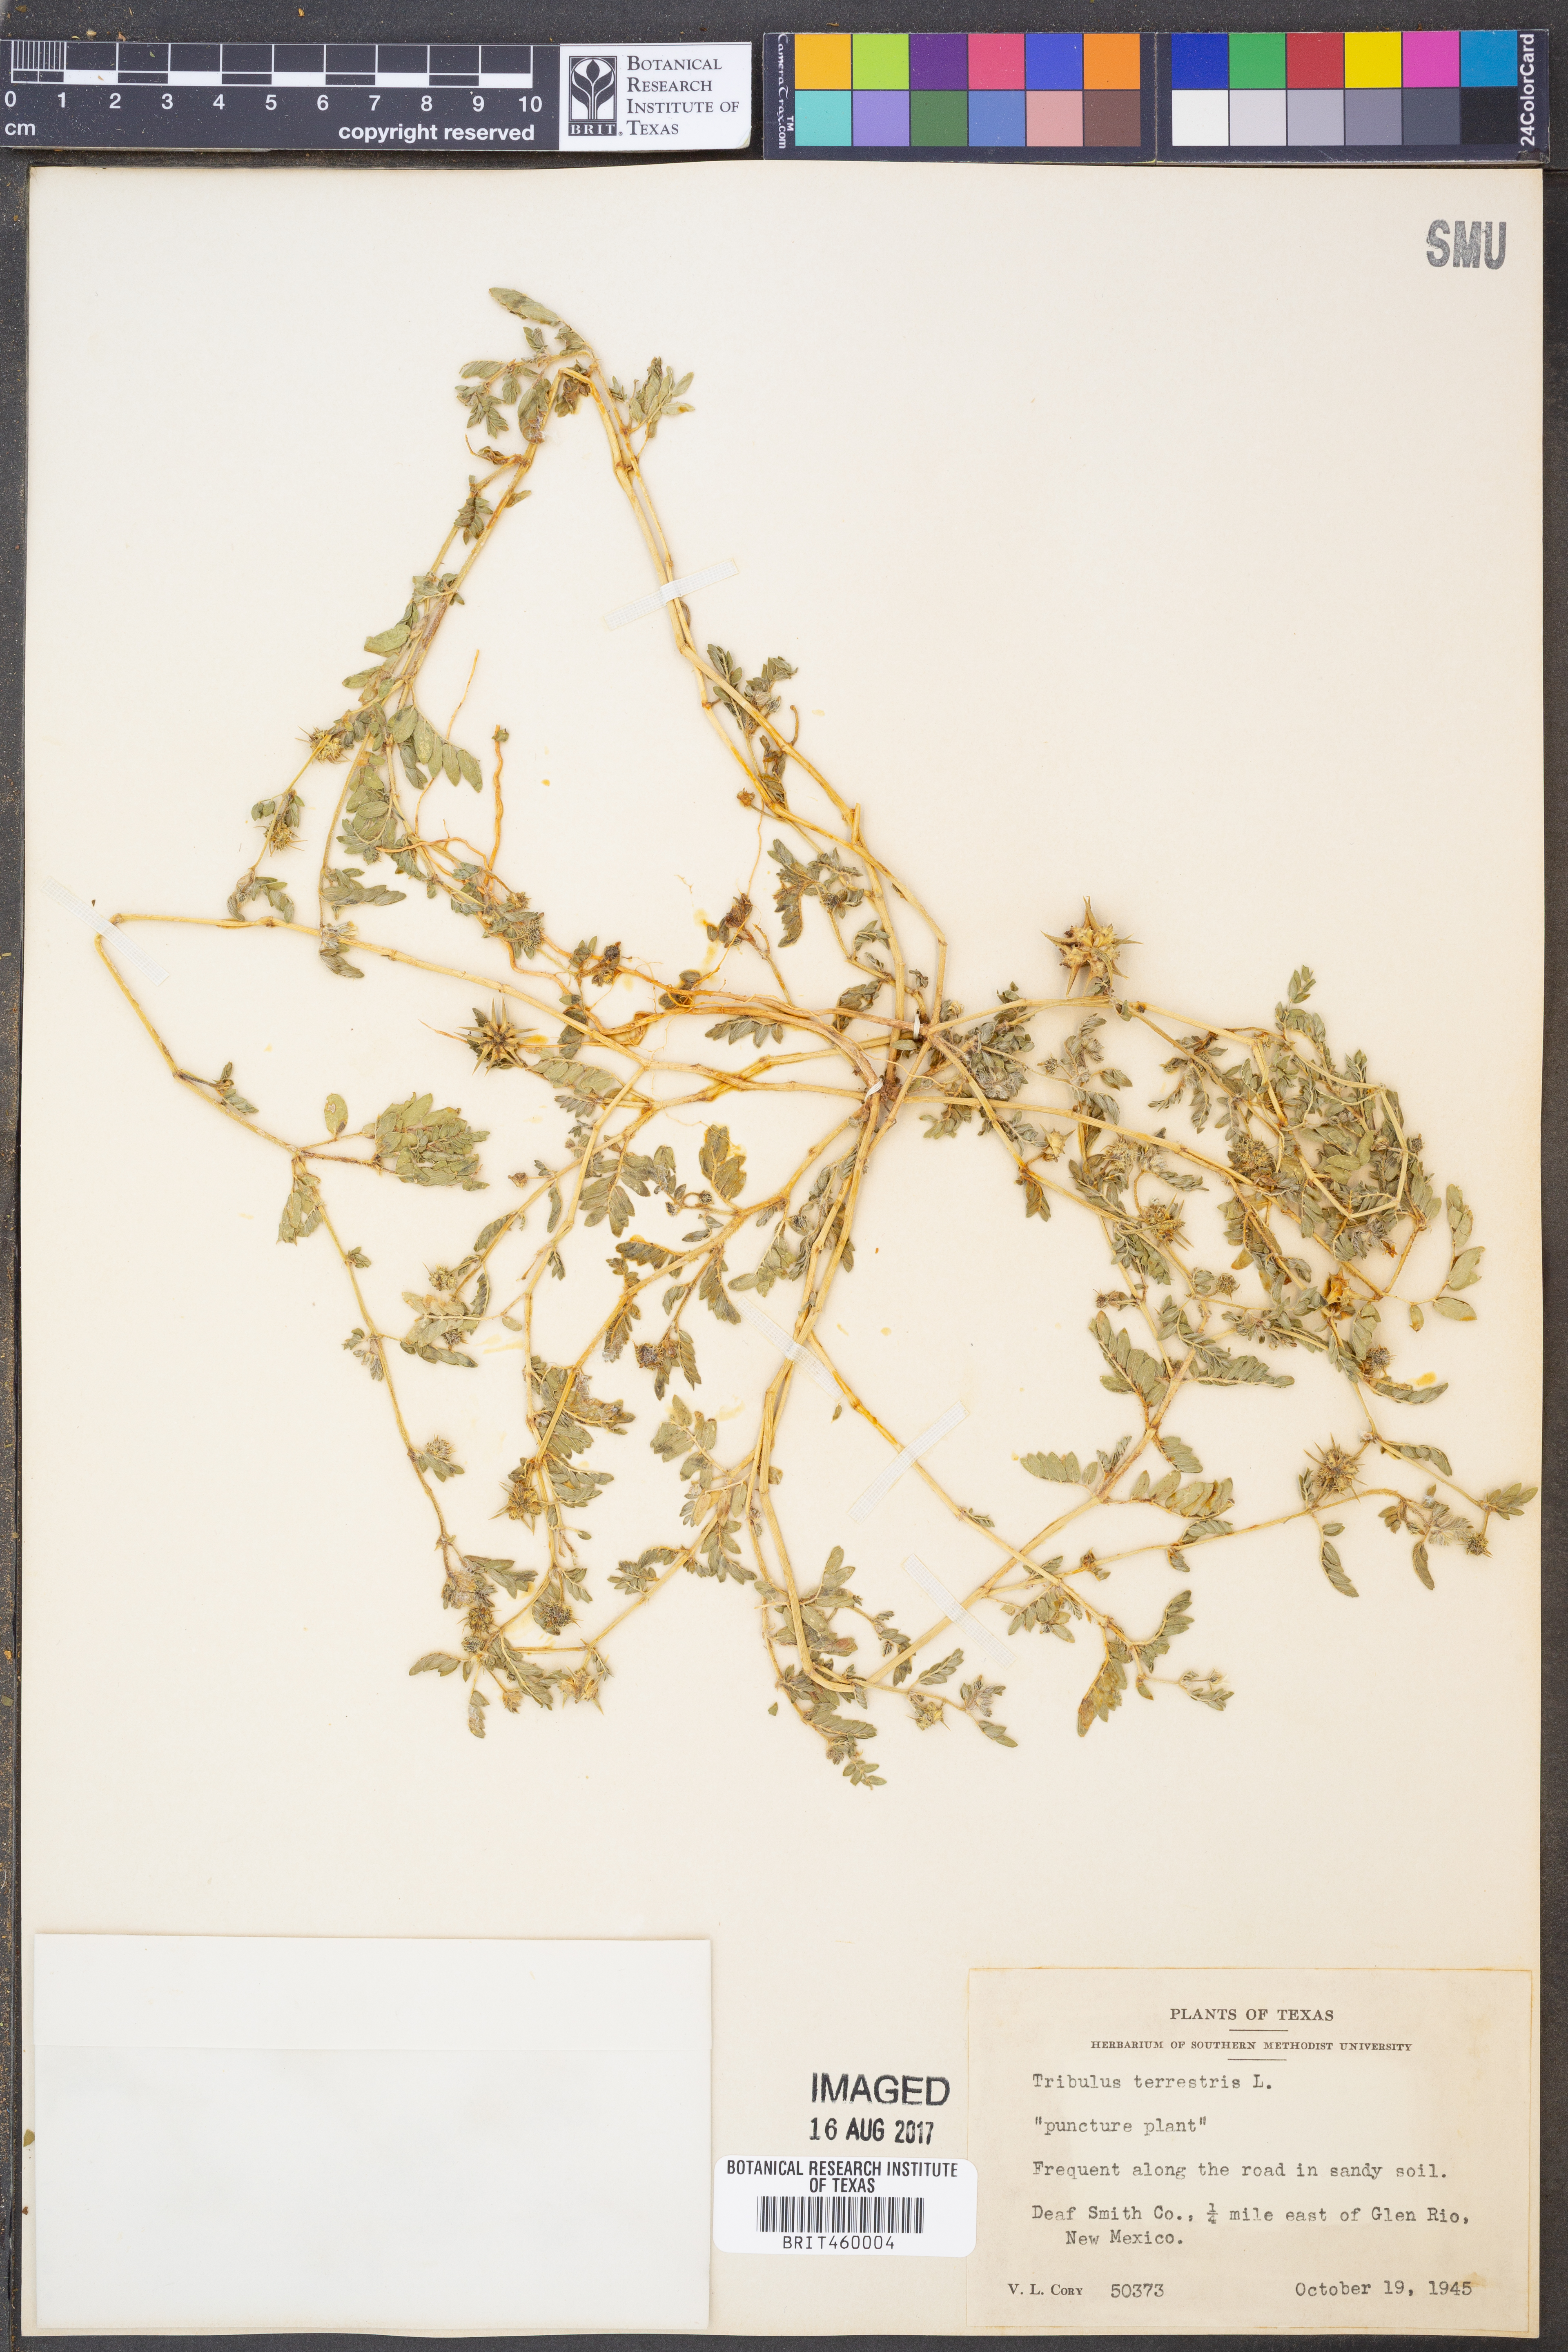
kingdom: Plantae
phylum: Tracheophyta
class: Magnoliopsida
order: Zygophyllales
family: Zygophyllaceae
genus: Tribulus
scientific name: Tribulus terrestris
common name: Puncturevine
